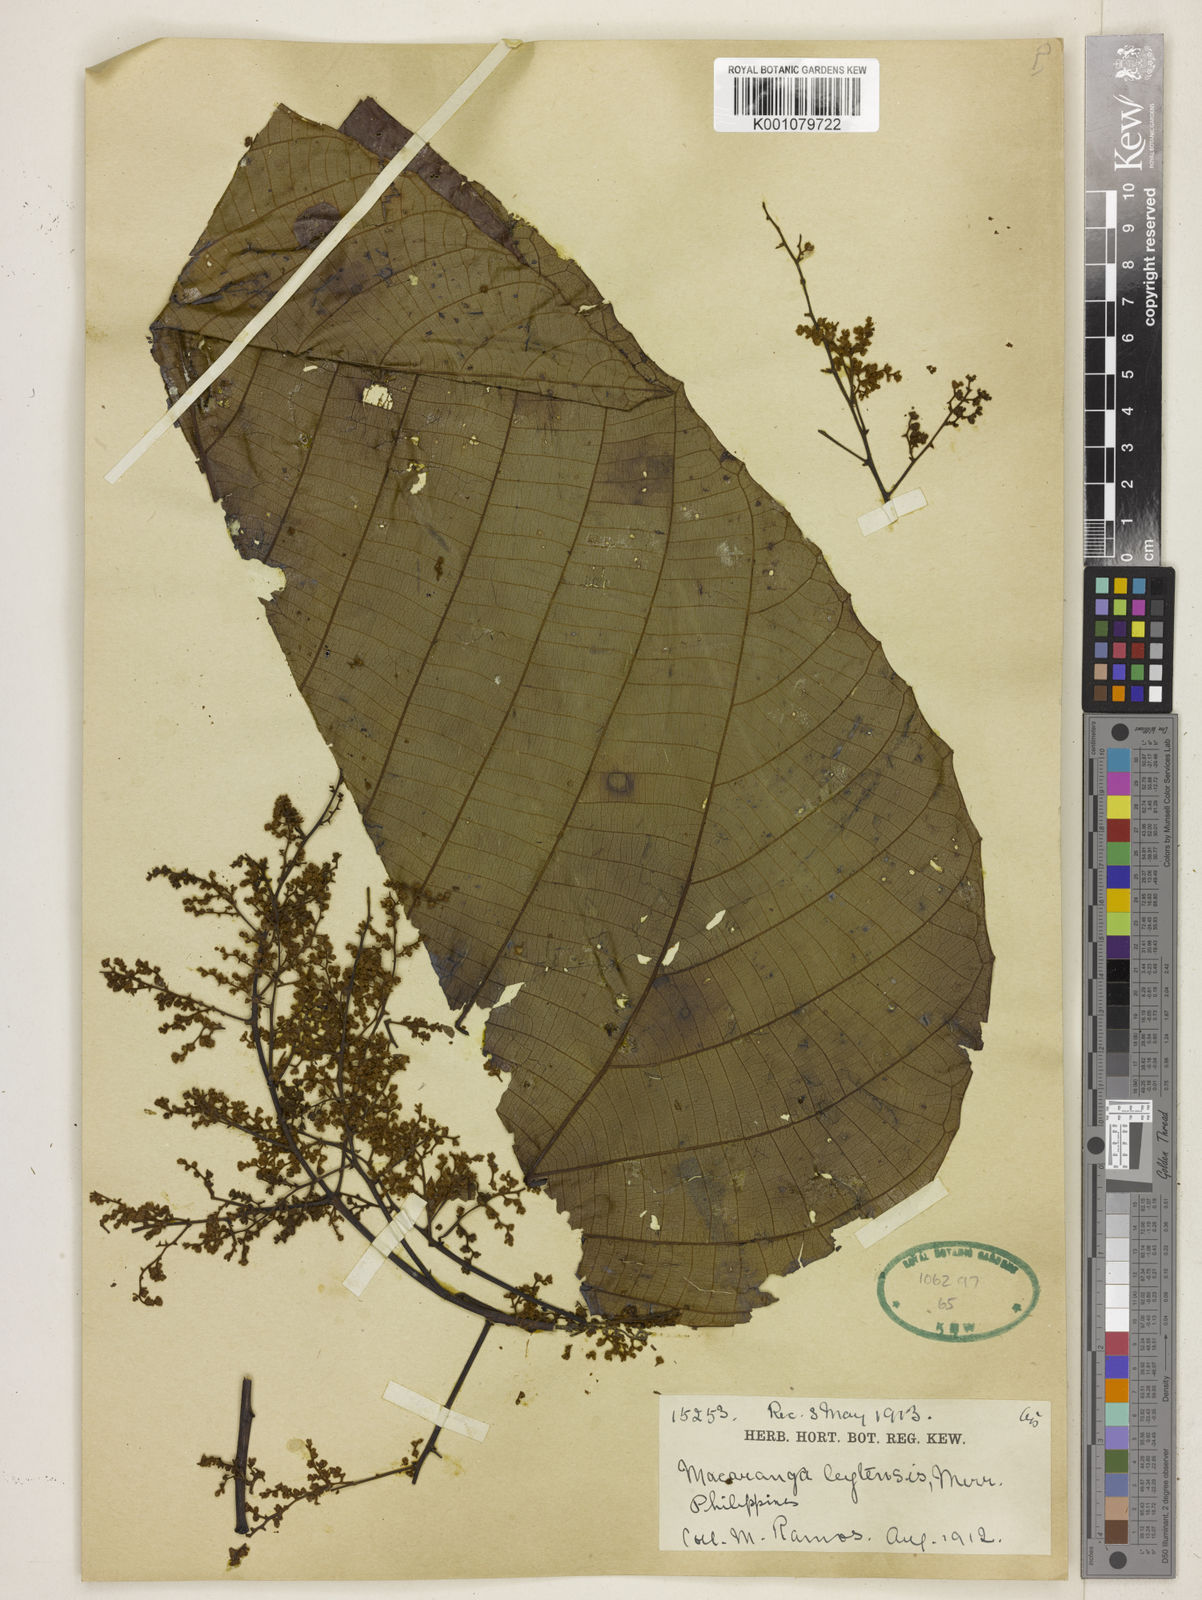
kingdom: Plantae
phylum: Tracheophyta
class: Magnoliopsida
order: Malpighiales
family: Euphorbiaceae
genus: Macaranga
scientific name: Macaranga leytensis
